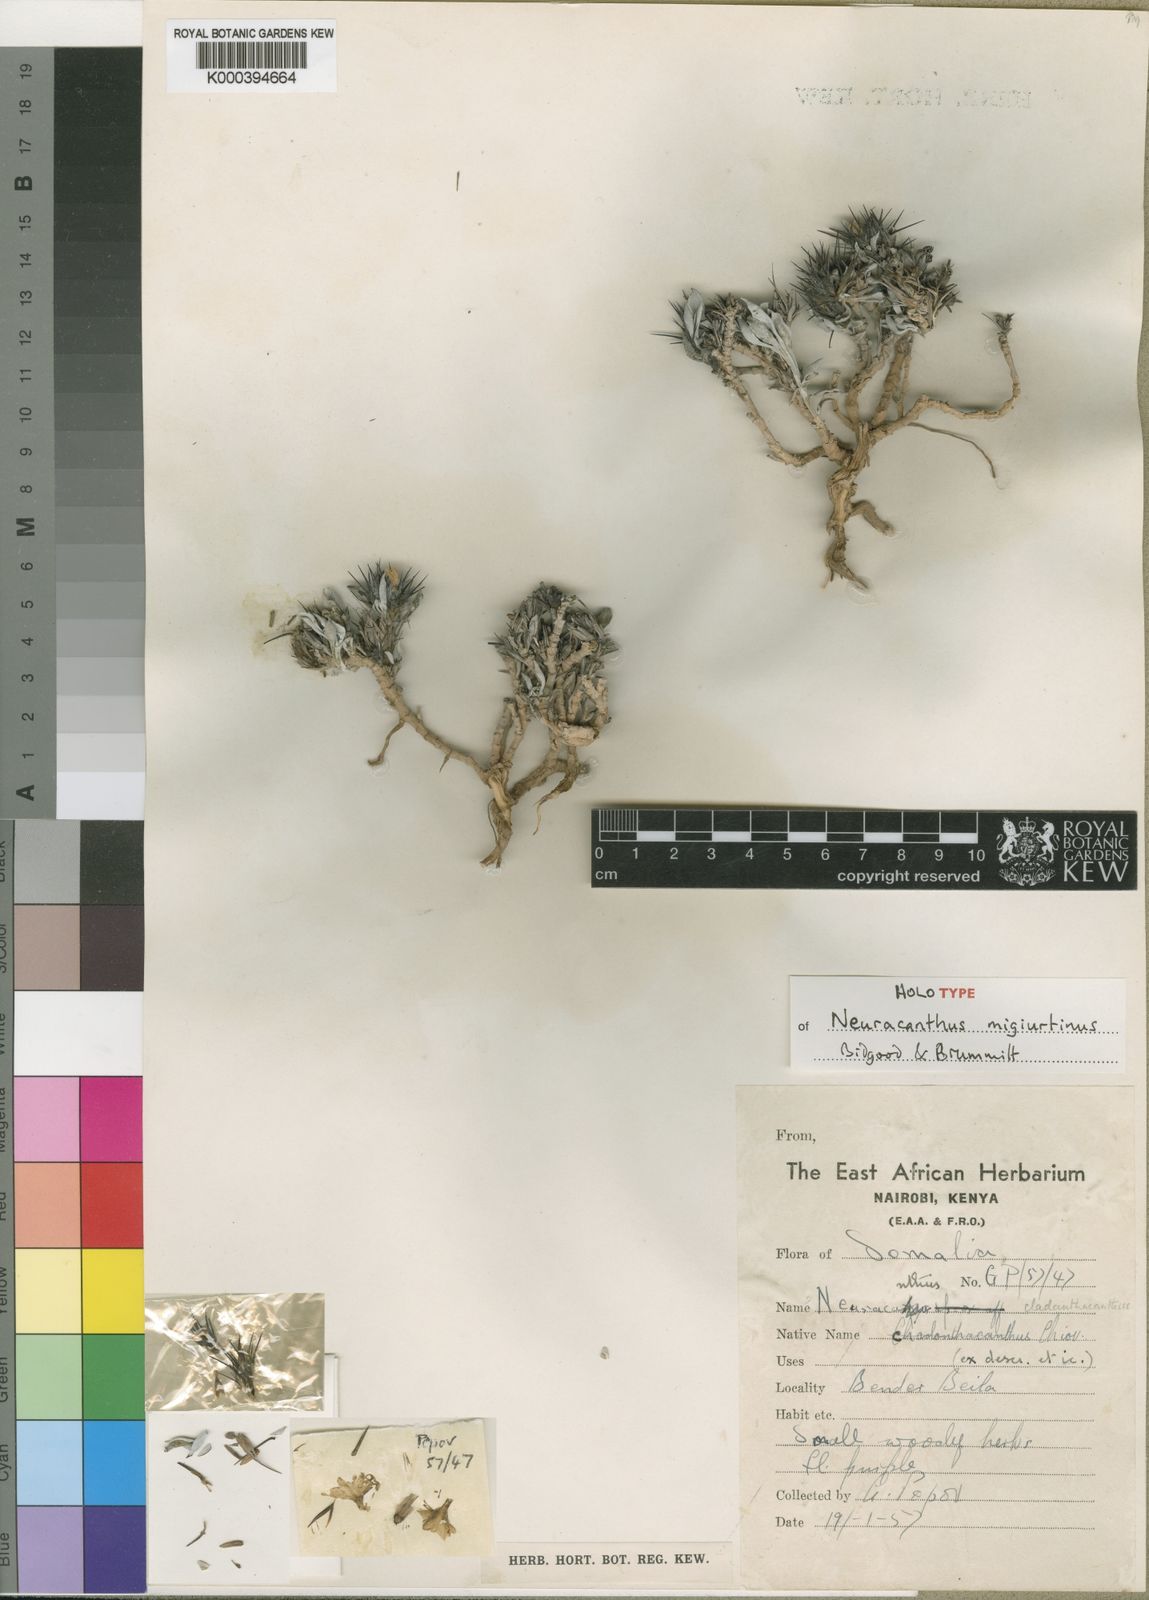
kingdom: Plantae
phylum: Tracheophyta
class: Magnoliopsida
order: Lamiales
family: Acanthaceae
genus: Neuracanthus
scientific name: Neuracanthus migiurtinus
